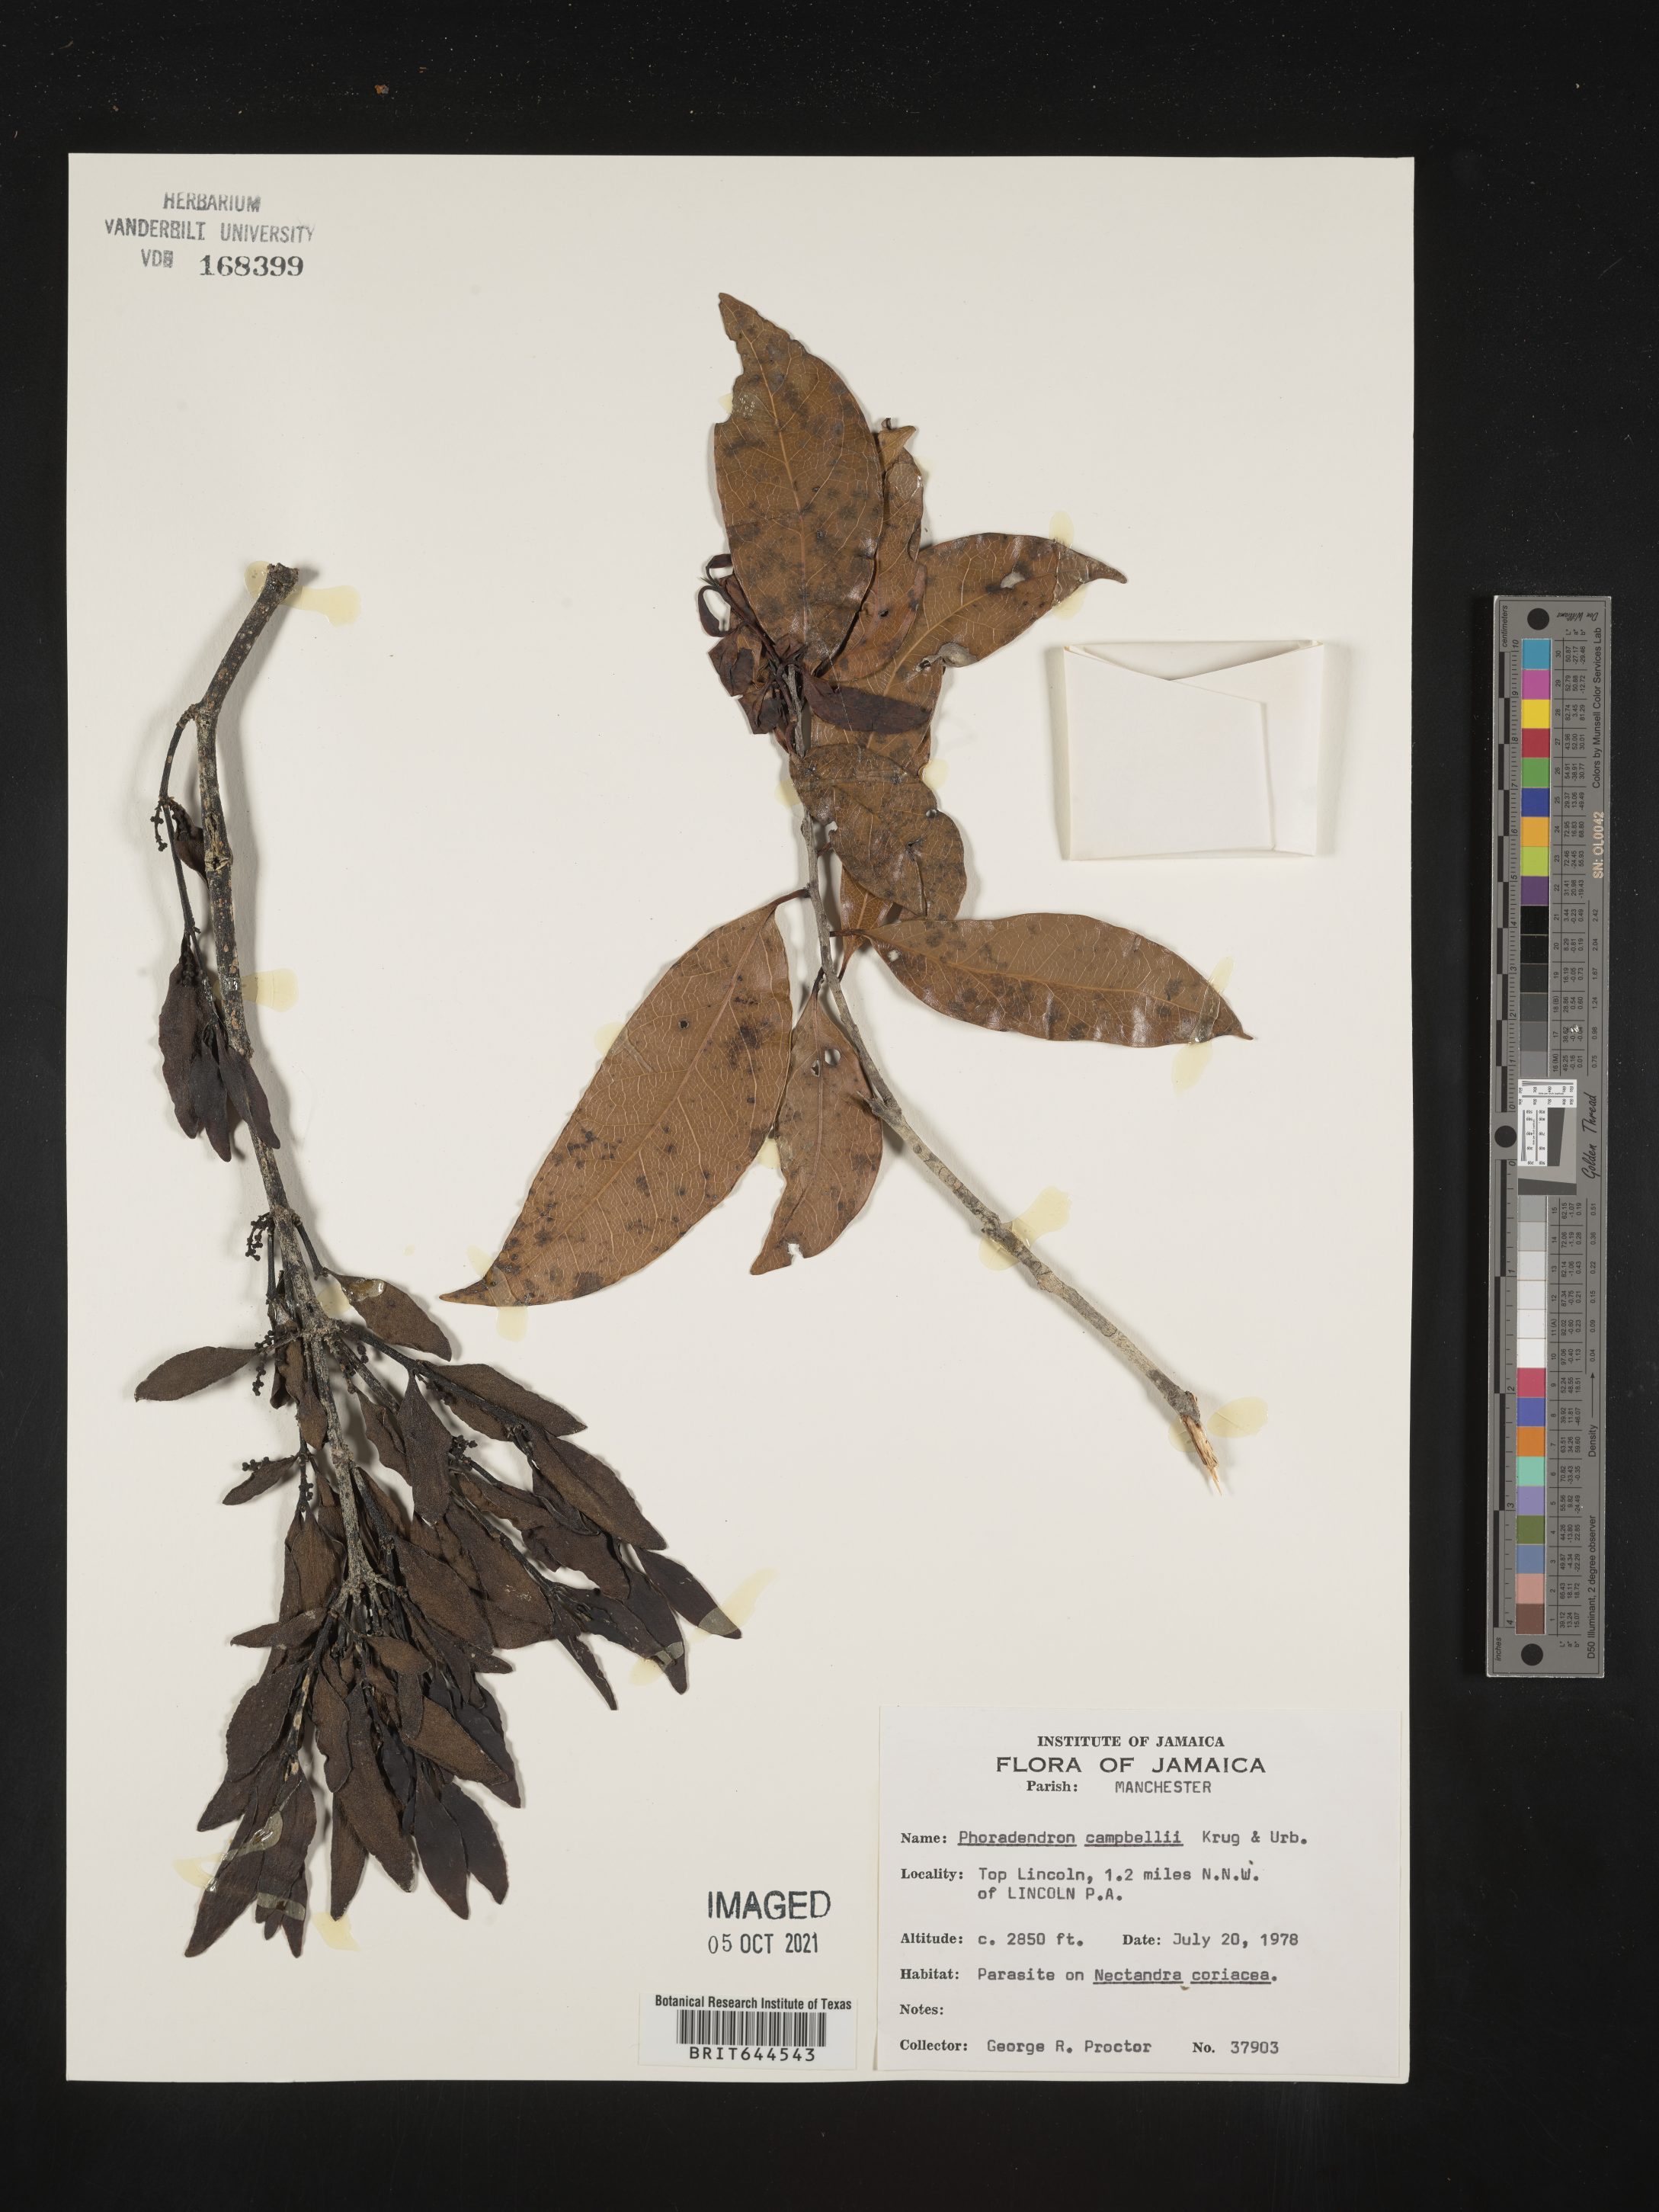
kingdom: Plantae
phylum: Tracheophyta
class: Magnoliopsida
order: Santalales
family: Viscaceae
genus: Phoradendron
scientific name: Phoradendron
